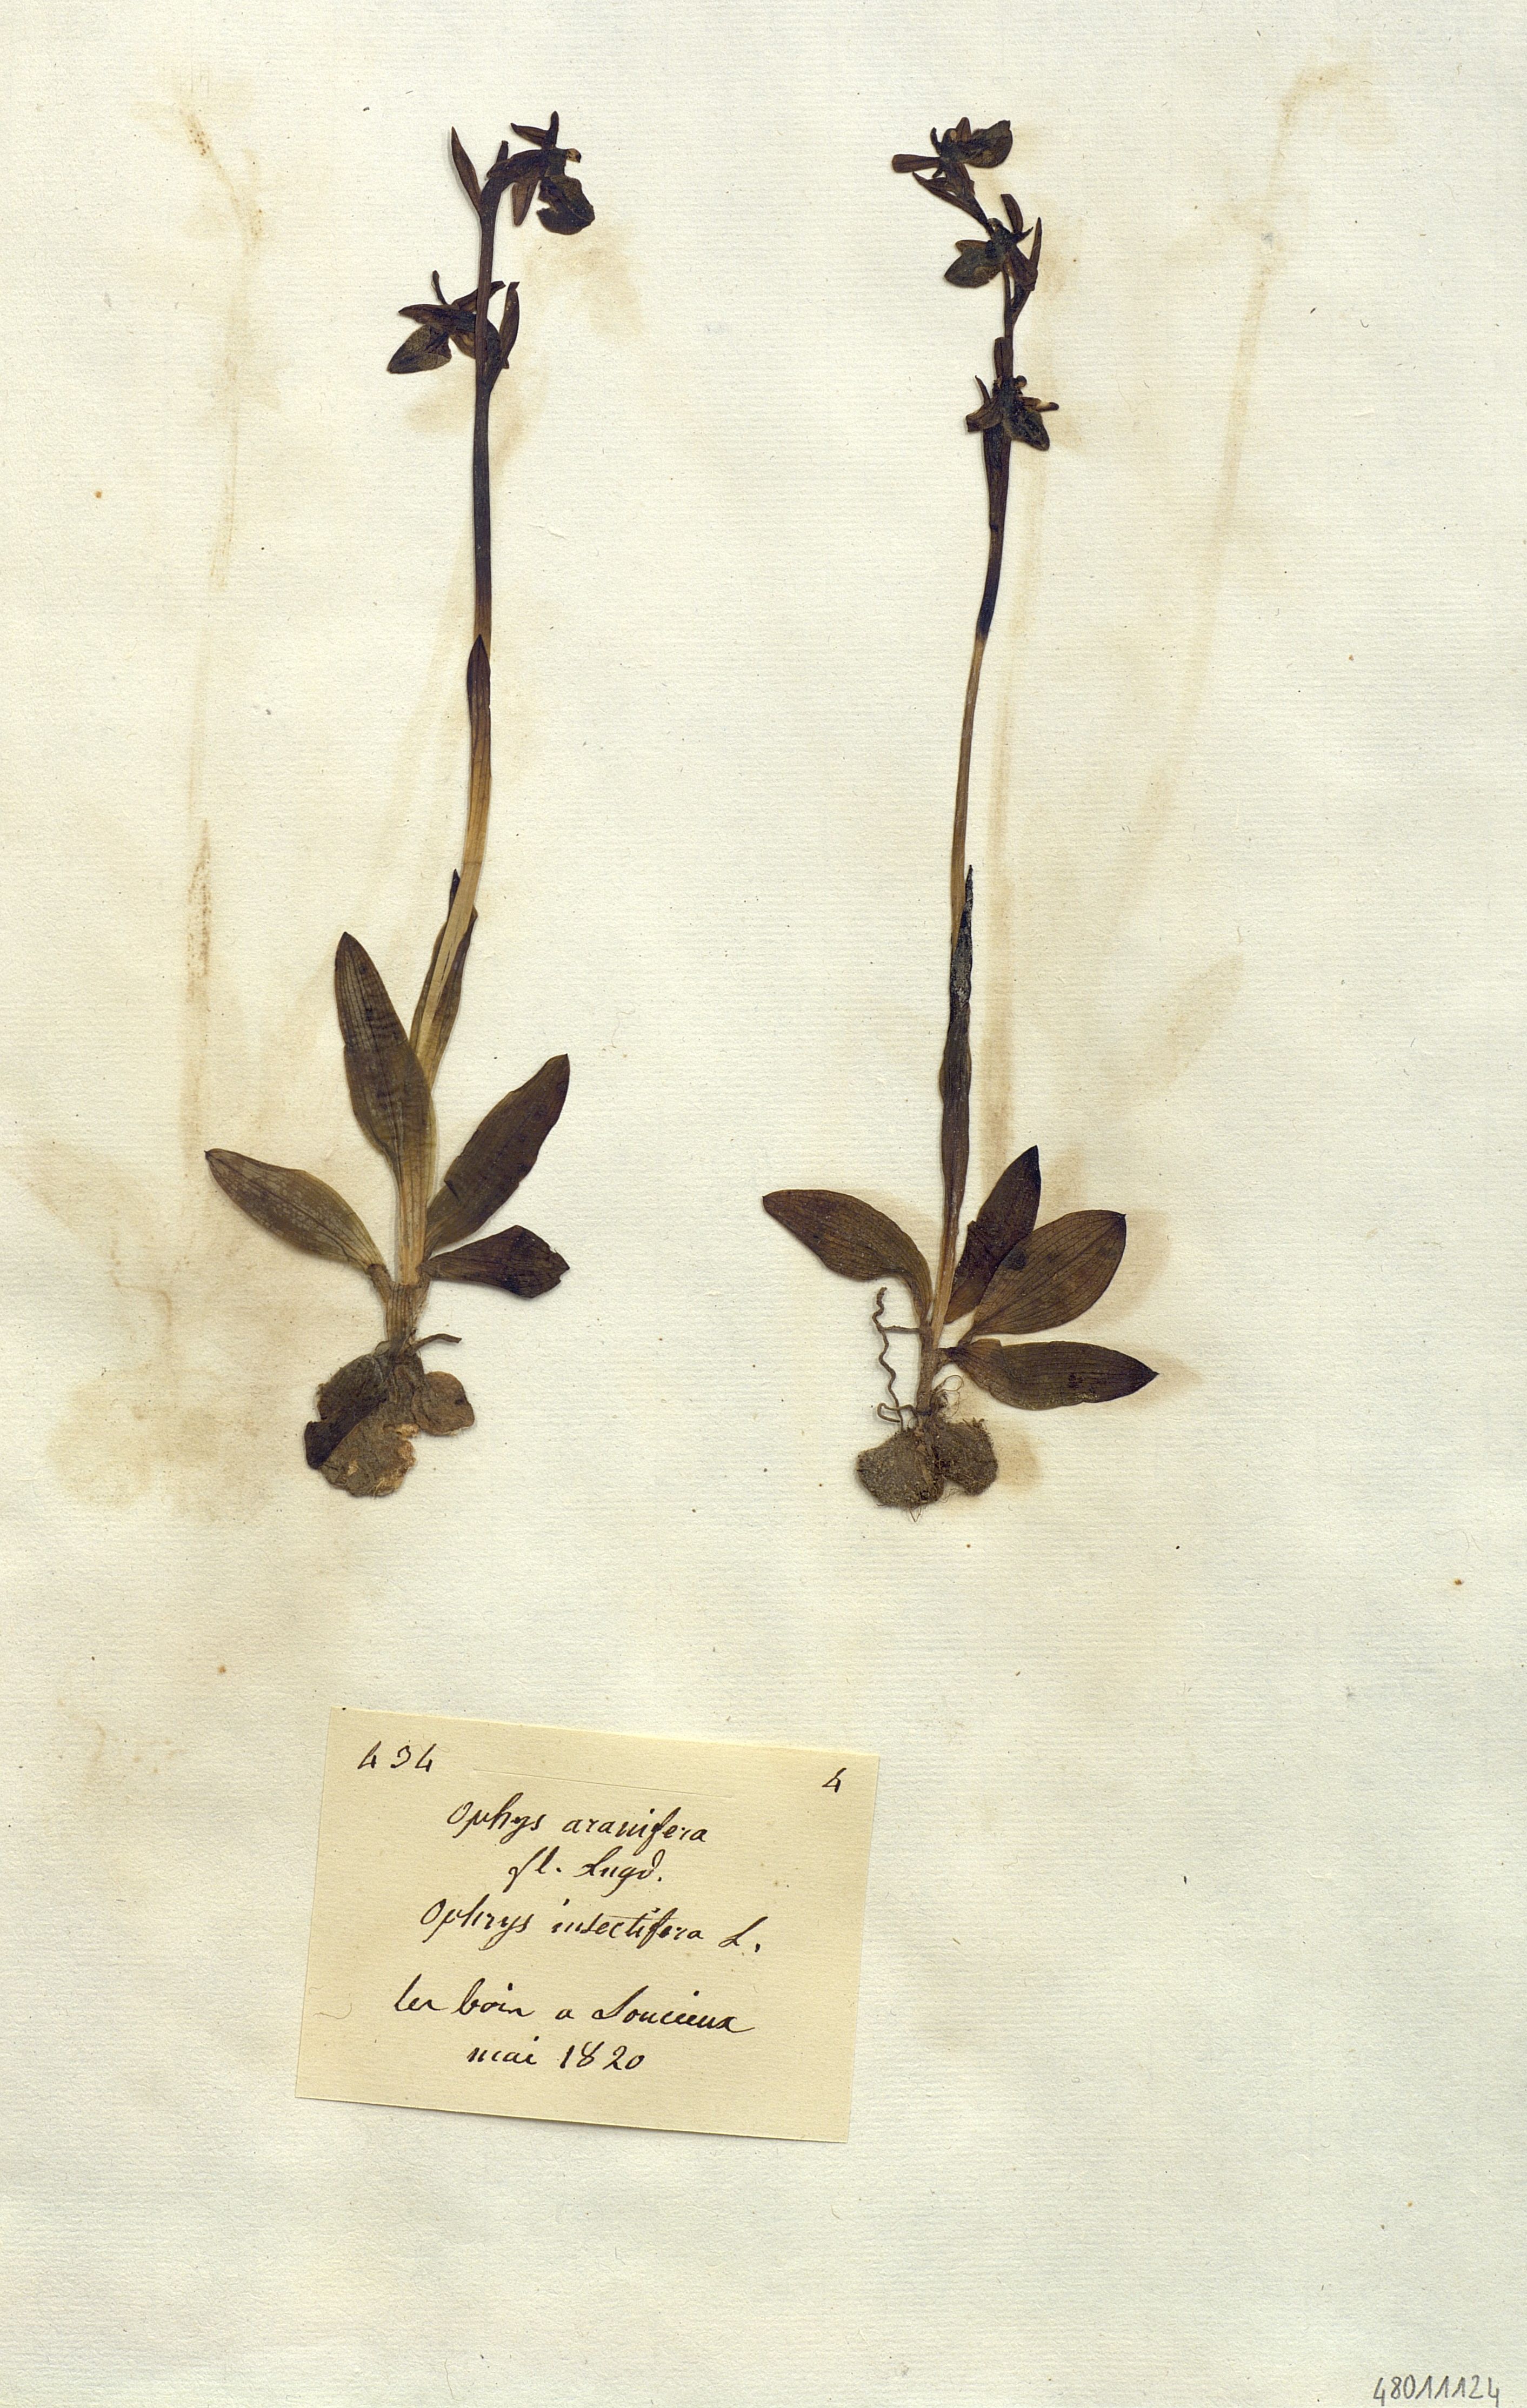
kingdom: Plantae
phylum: Tracheophyta
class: Liliopsida
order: Asparagales
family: Orchidaceae
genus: Ophrys
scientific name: Ophrys sphegodes
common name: Early spider-orchid
